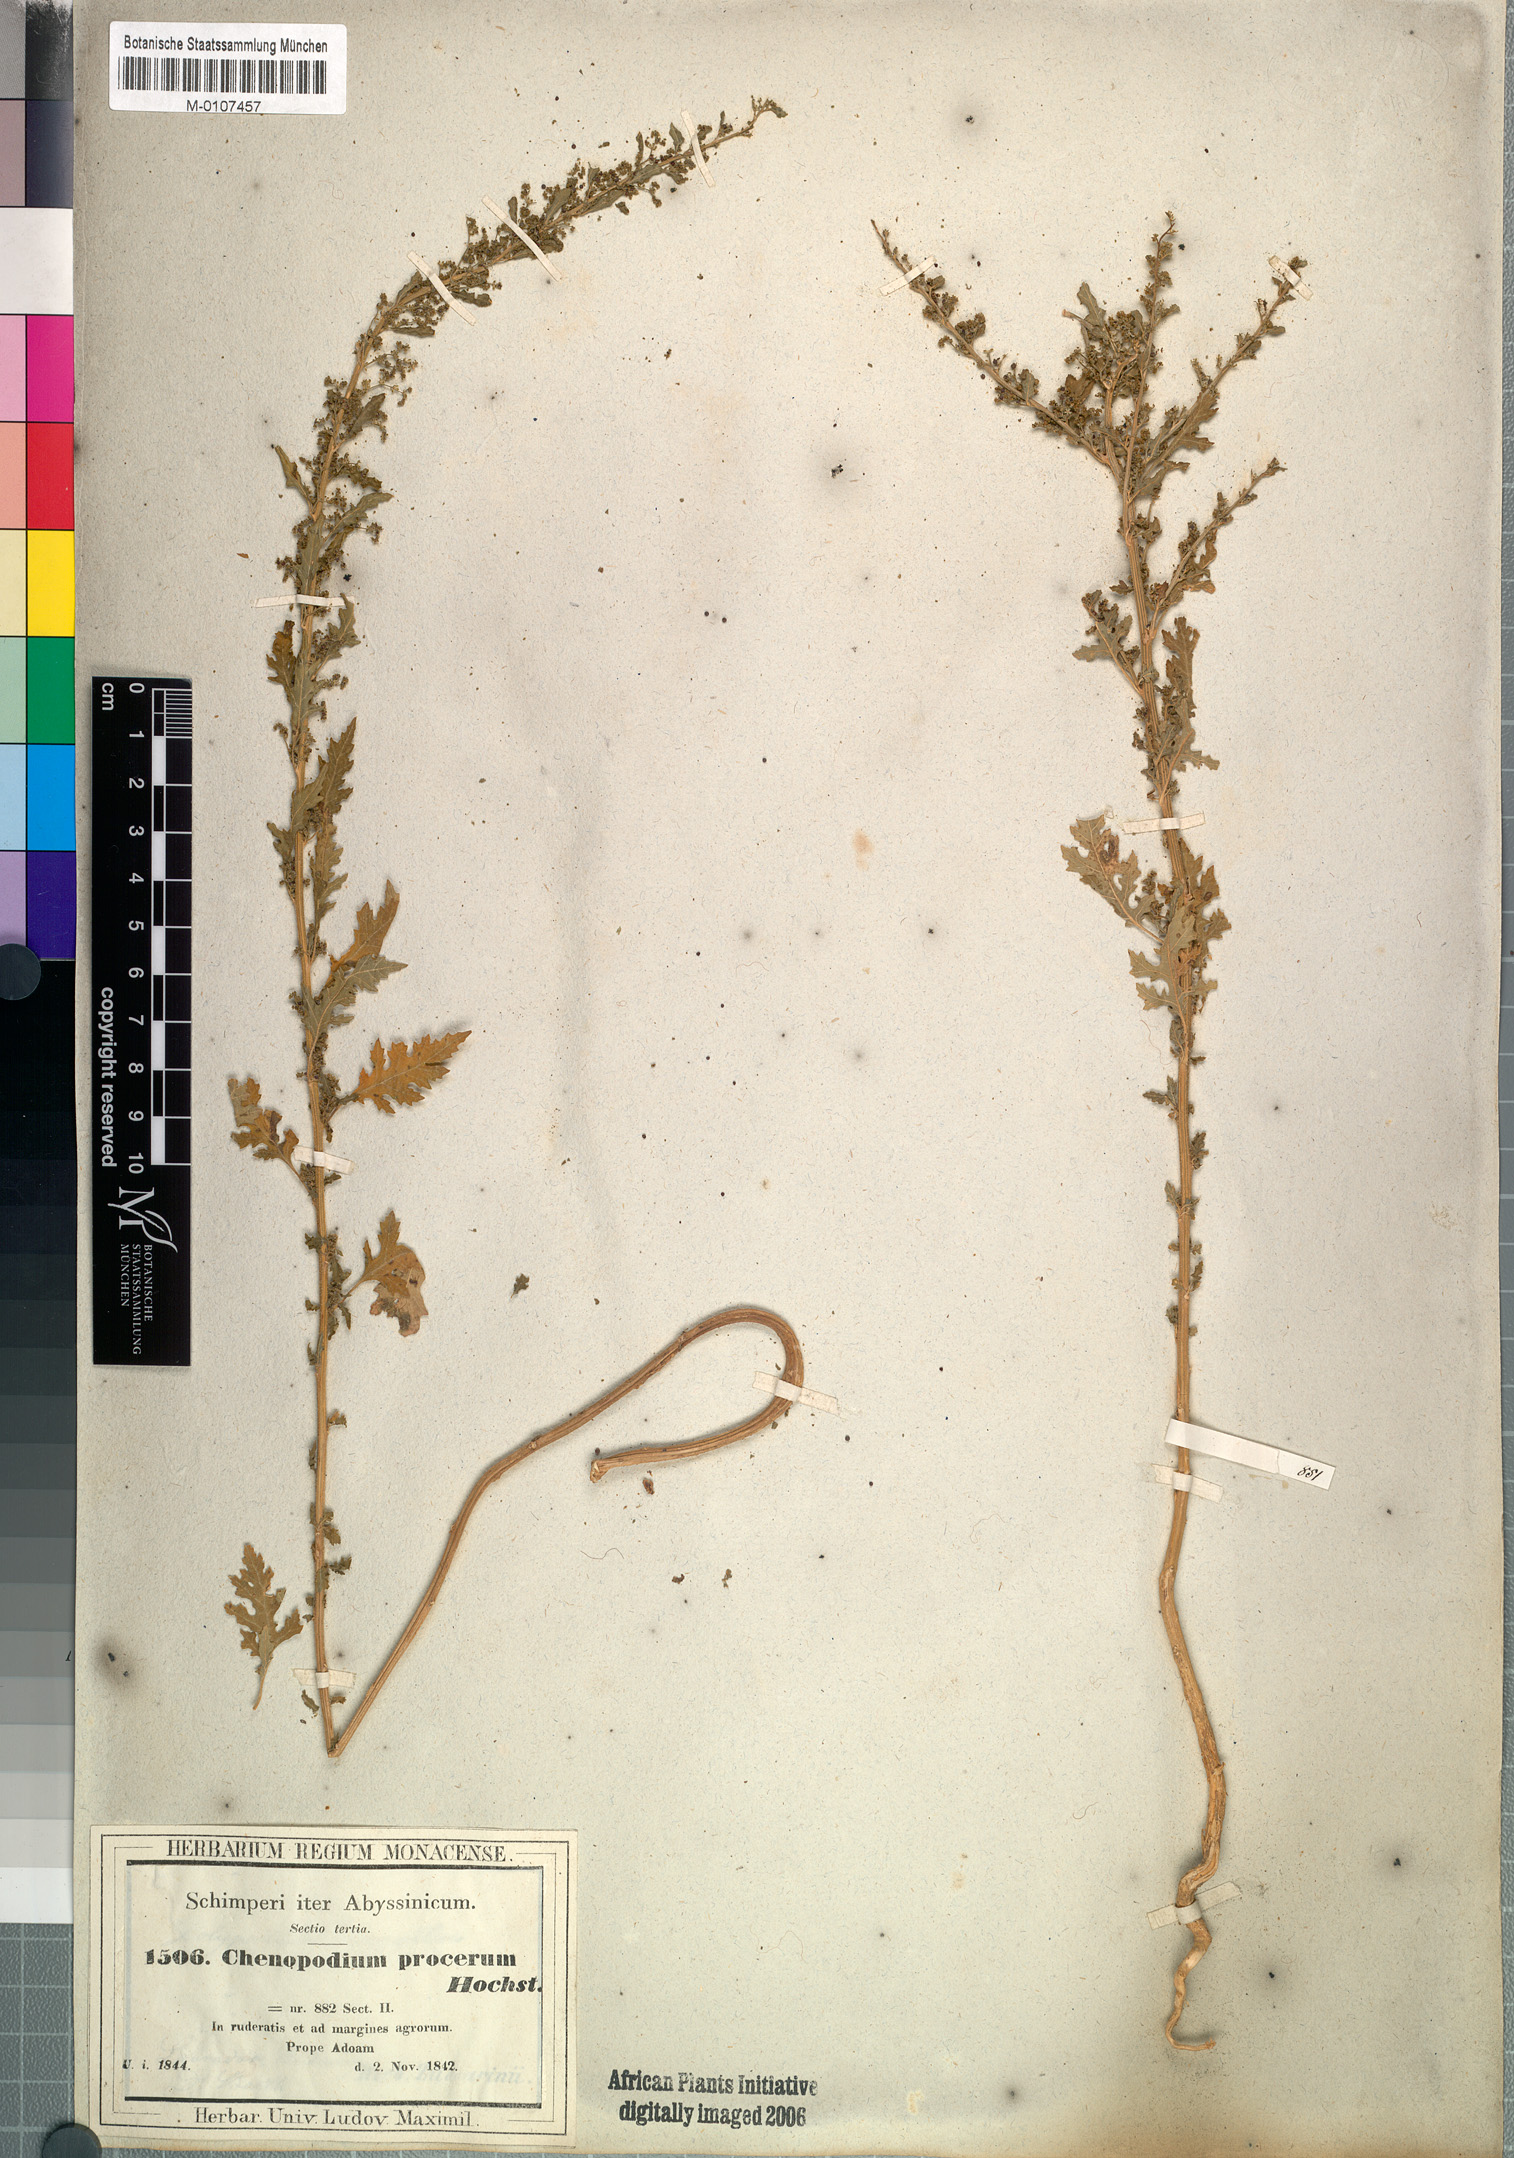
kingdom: Plantae
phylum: Tracheophyta
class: Magnoliopsida
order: Caryophyllales
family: Amaranthaceae
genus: Dysphania
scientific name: Dysphania procera
